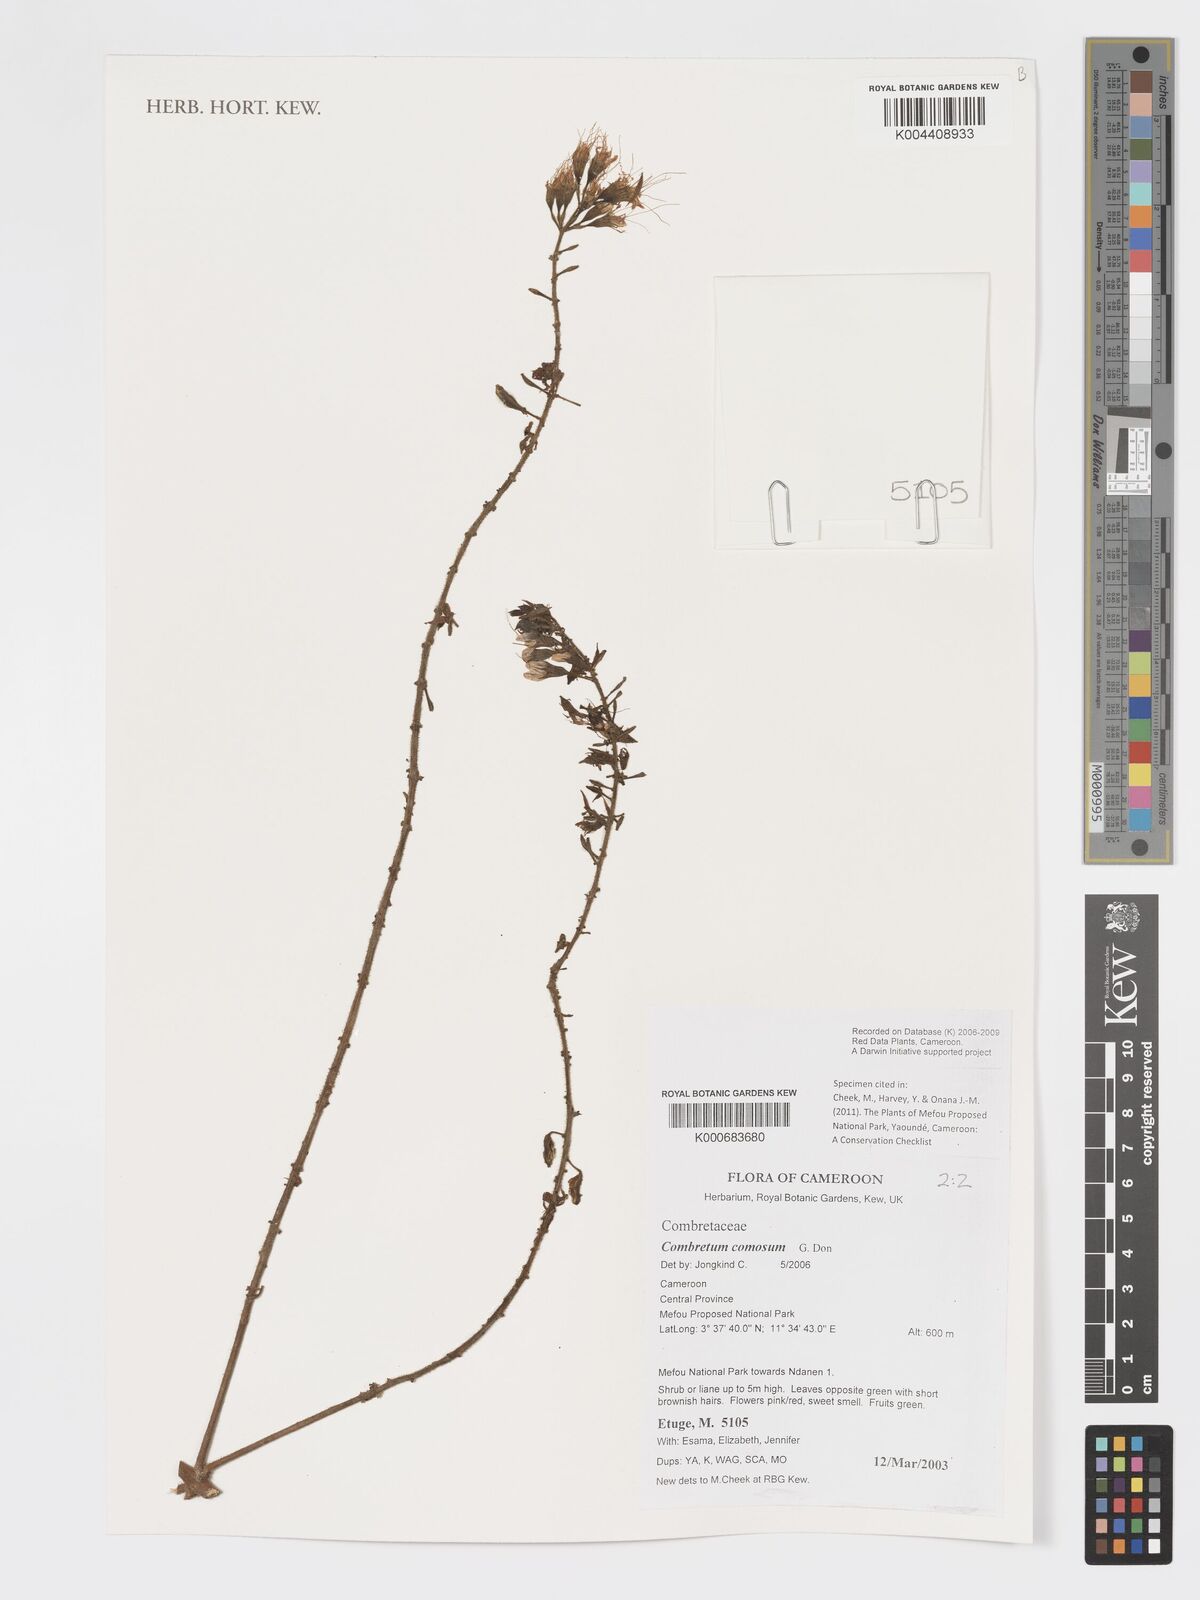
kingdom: Plantae
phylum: Tracheophyta
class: Magnoliopsida
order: Myrtales
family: Combretaceae
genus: Combretum
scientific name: Combretum comosum
